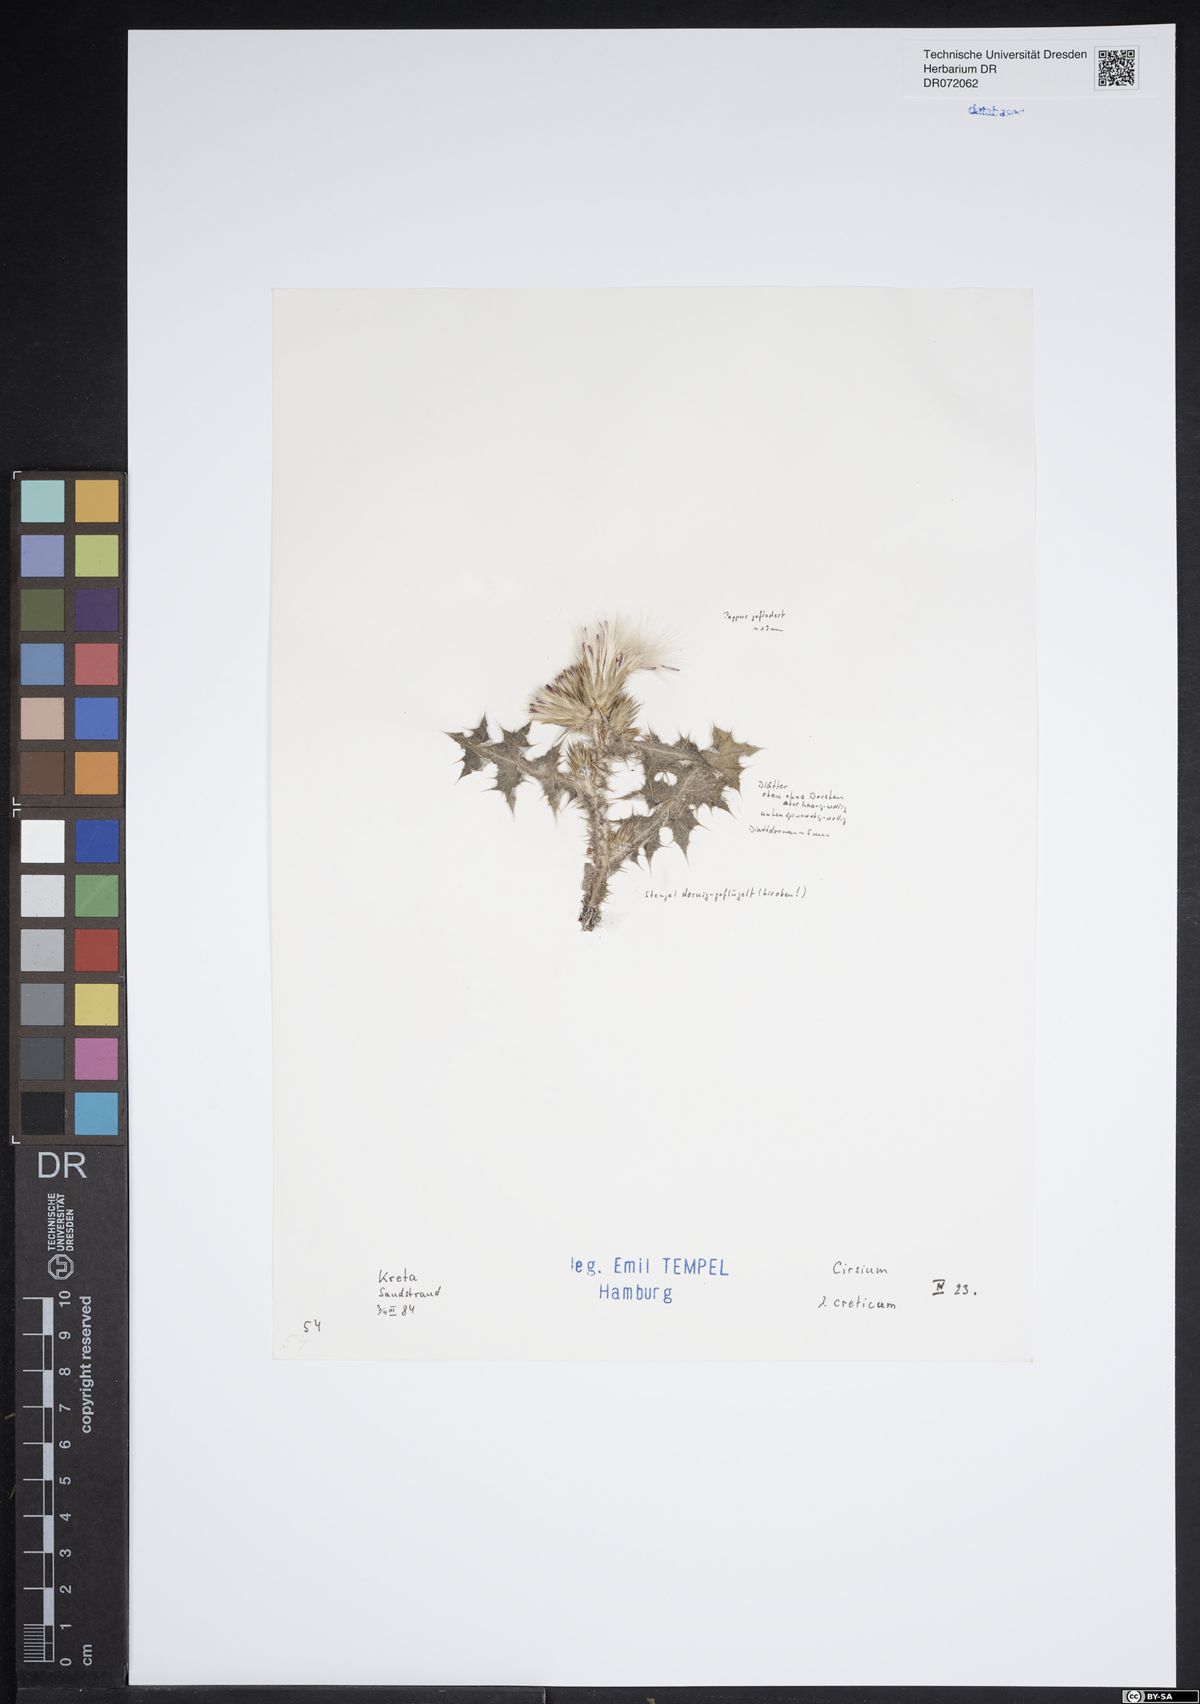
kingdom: Plantae
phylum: Tracheophyta
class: Magnoliopsida
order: Asterales
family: Asteraceae
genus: Cirsium
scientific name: Cirsium creticum
